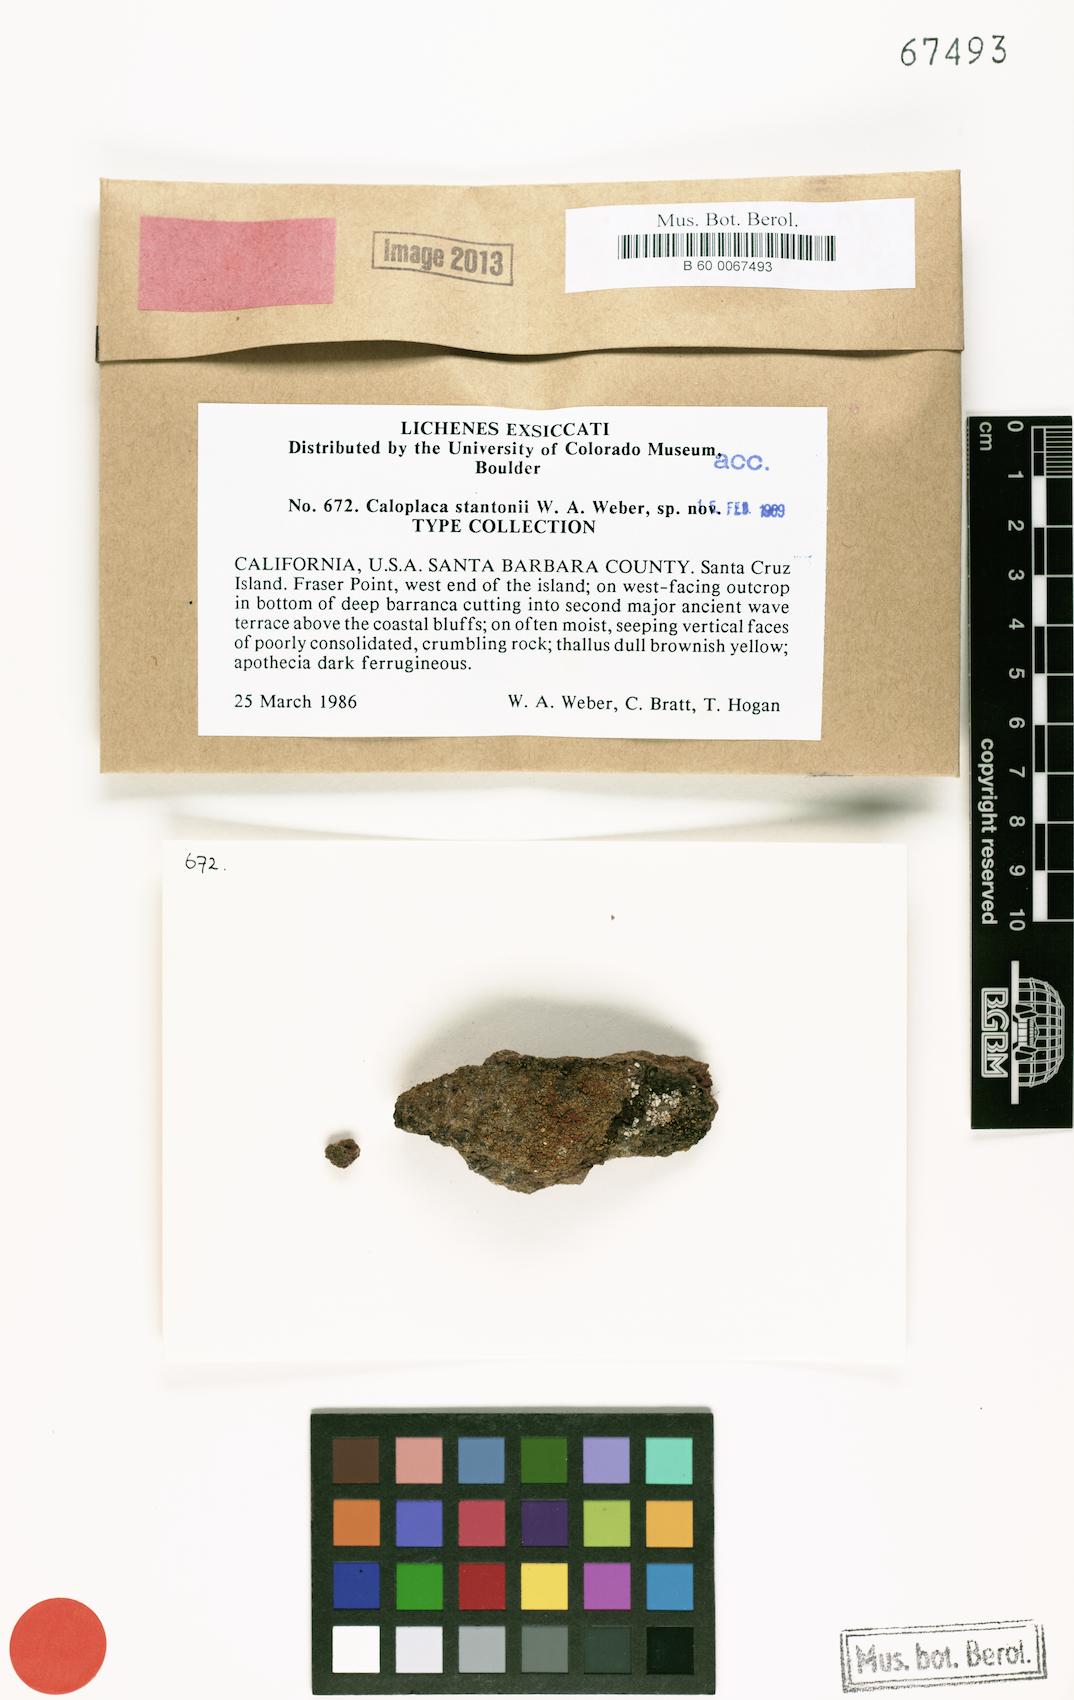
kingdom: Fungi
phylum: Ascomycota
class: Lecanoromycetes
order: Teloschistales
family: Teloschistaceae
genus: Gyalolechia
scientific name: Gyalolechia stantonii
